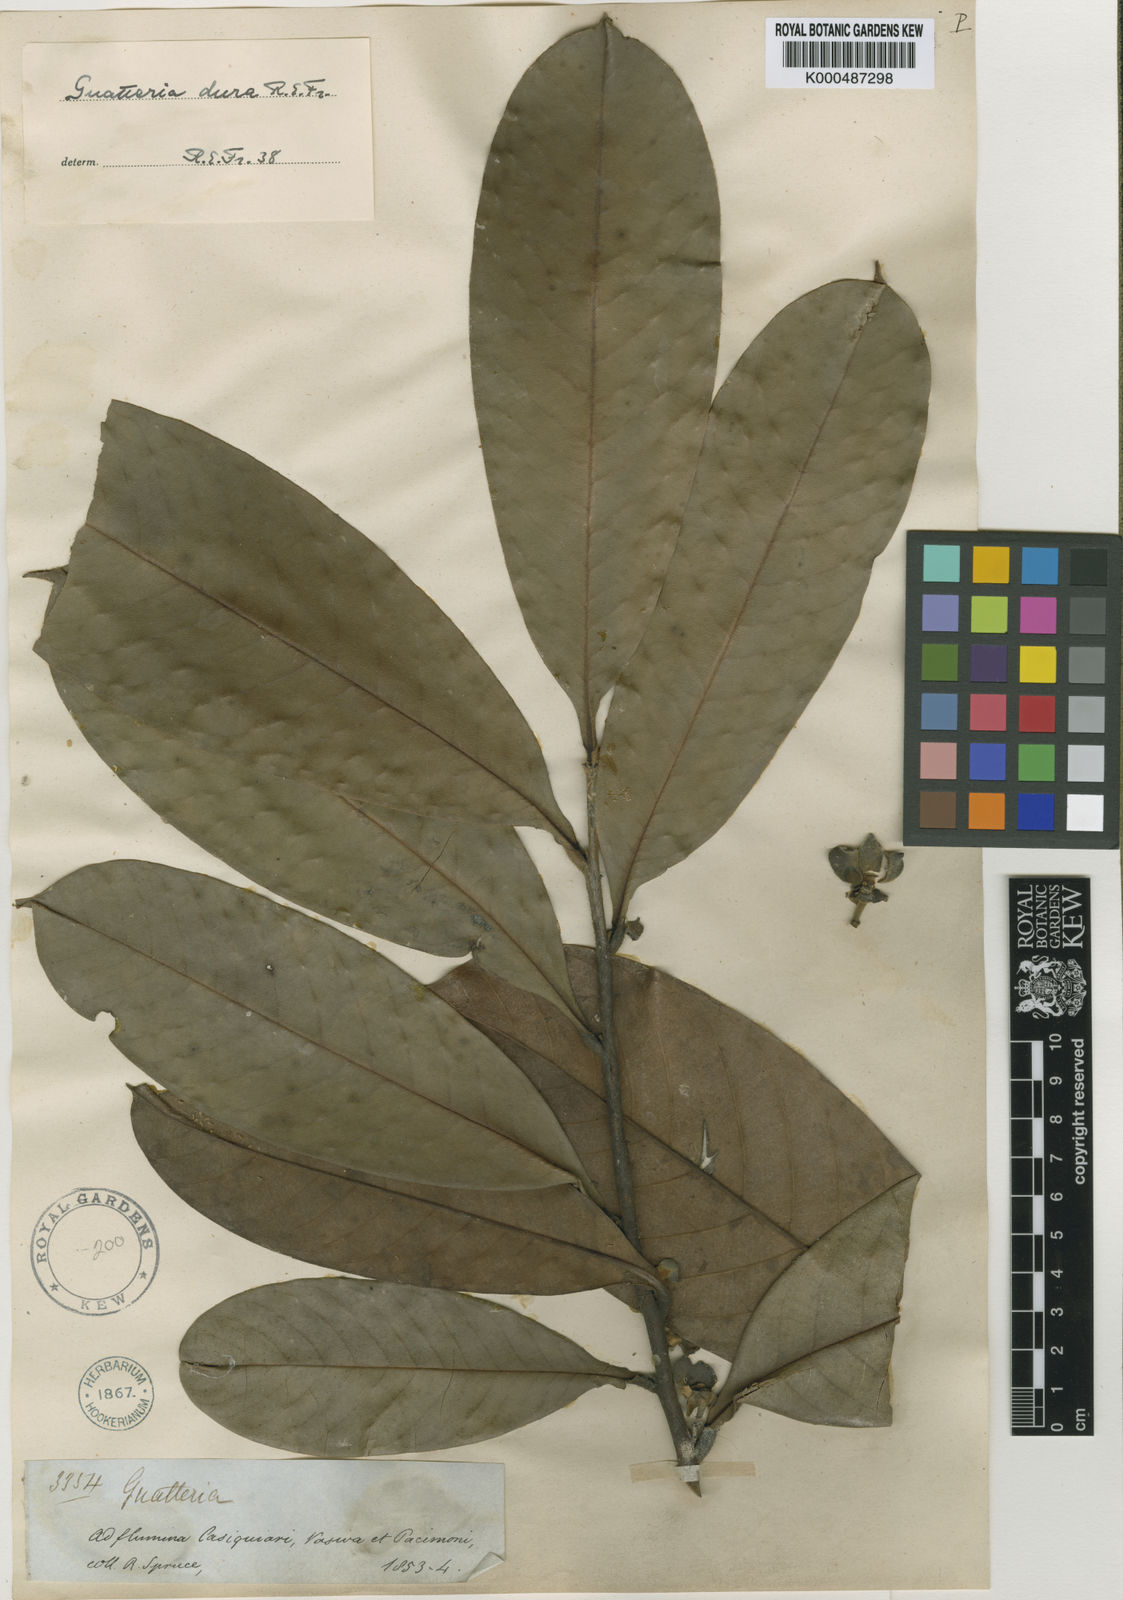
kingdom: Plantae
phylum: Tracheophyta
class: Magnoliopsida
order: Magnoliales
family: Annonaceae
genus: Guatteria
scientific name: Guatteria dura
